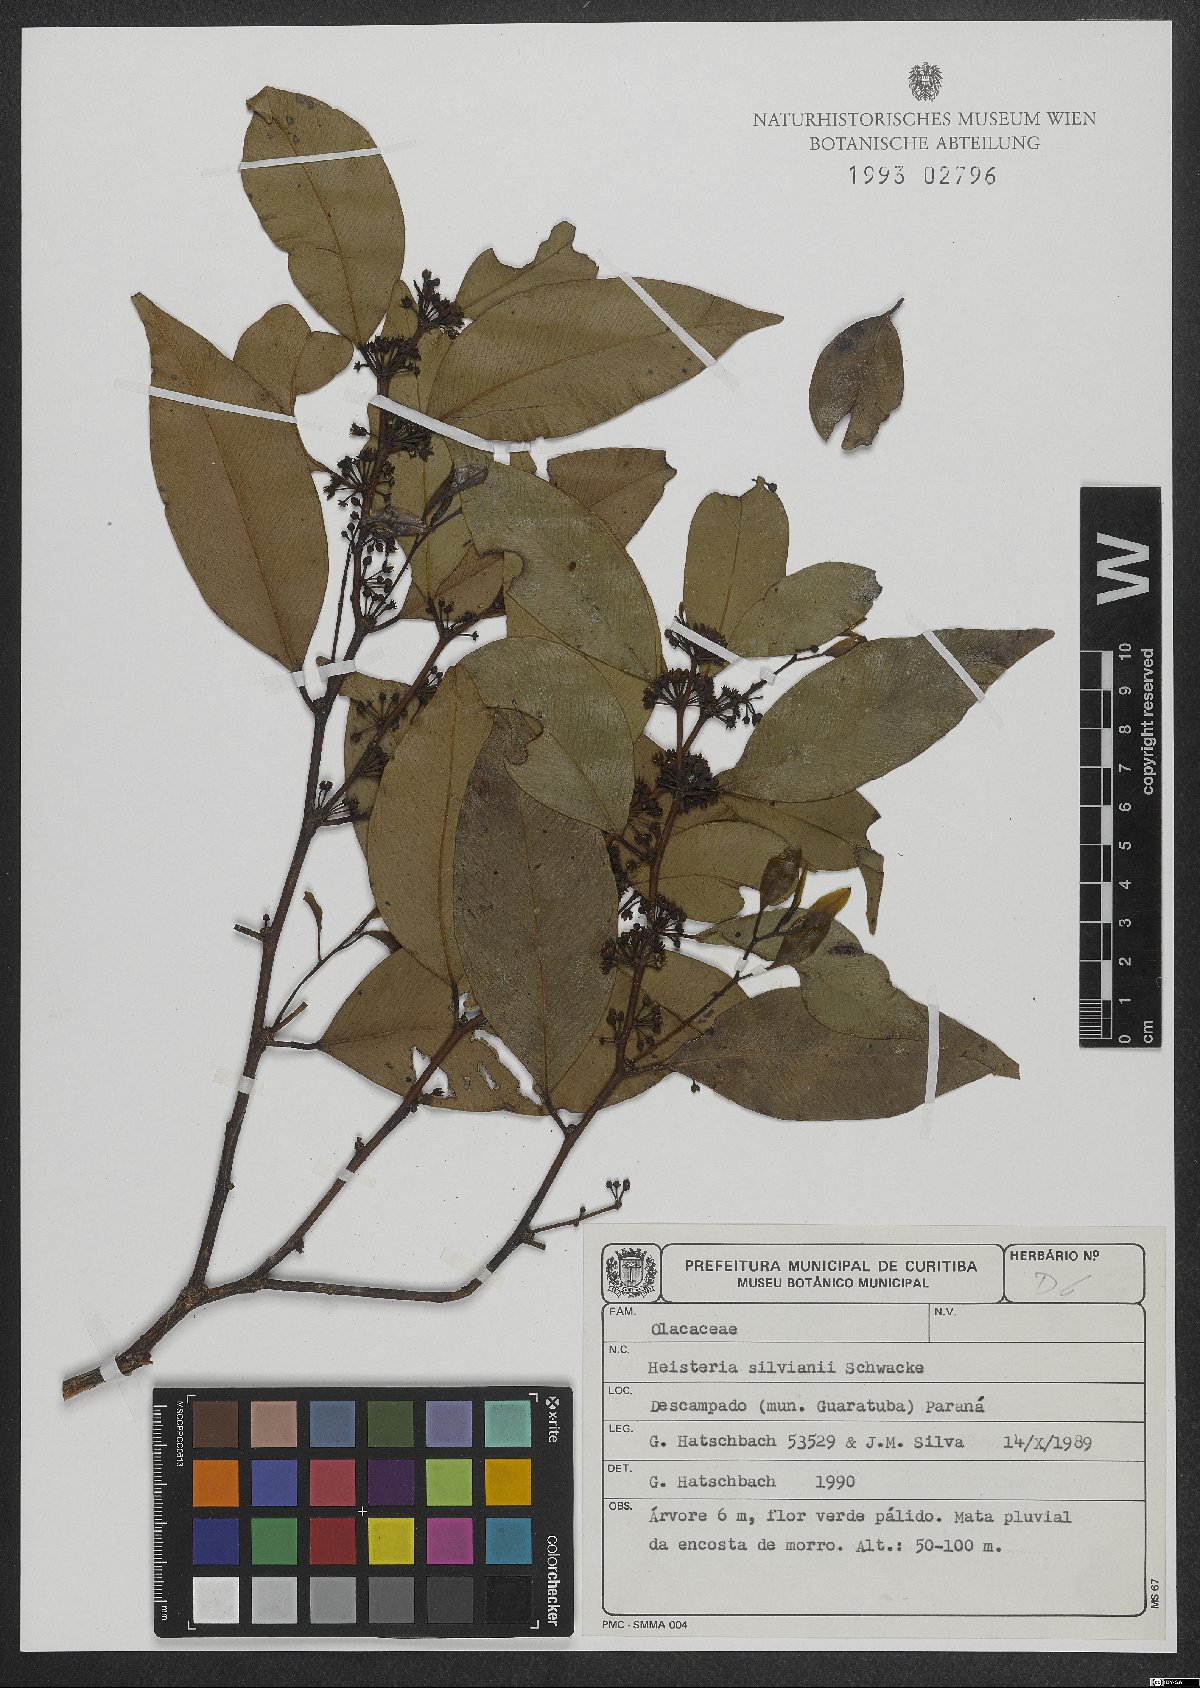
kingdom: Plantae
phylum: Tracheophyta
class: Magnoliopsida
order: Santalales
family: Erythropalaceae
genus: Heisteria
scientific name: Heisteria silvianii
